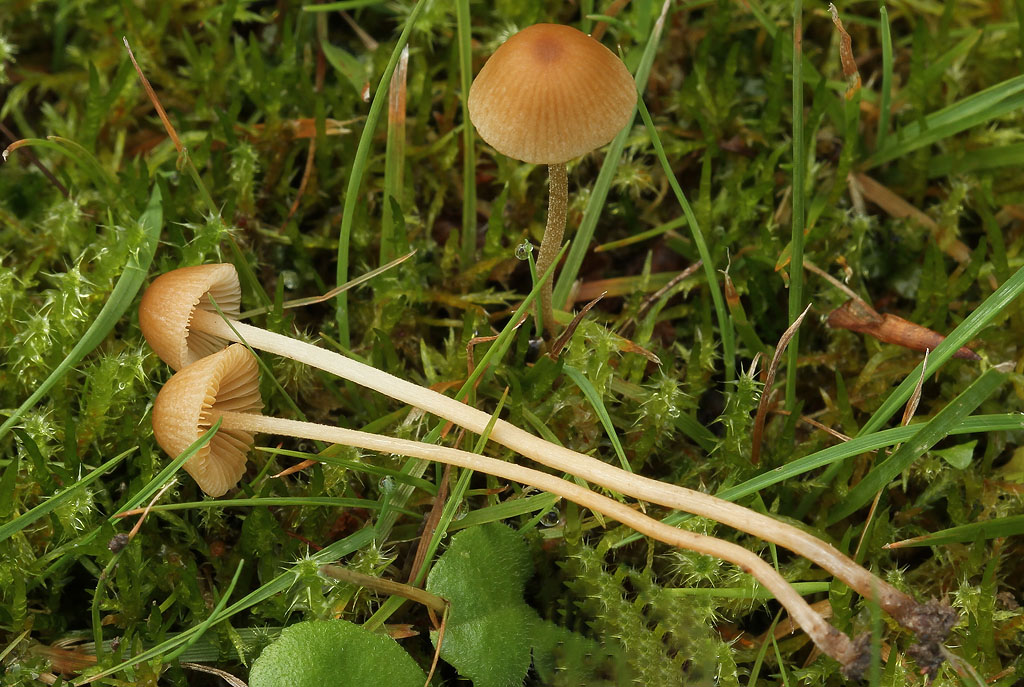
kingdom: Fungi
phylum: Basidiomycota
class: Agaricomycetes
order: Agaricales
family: Bolbitiaceae
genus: Conocybe
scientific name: Conocybe velutipes
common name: lædergul keglehat
